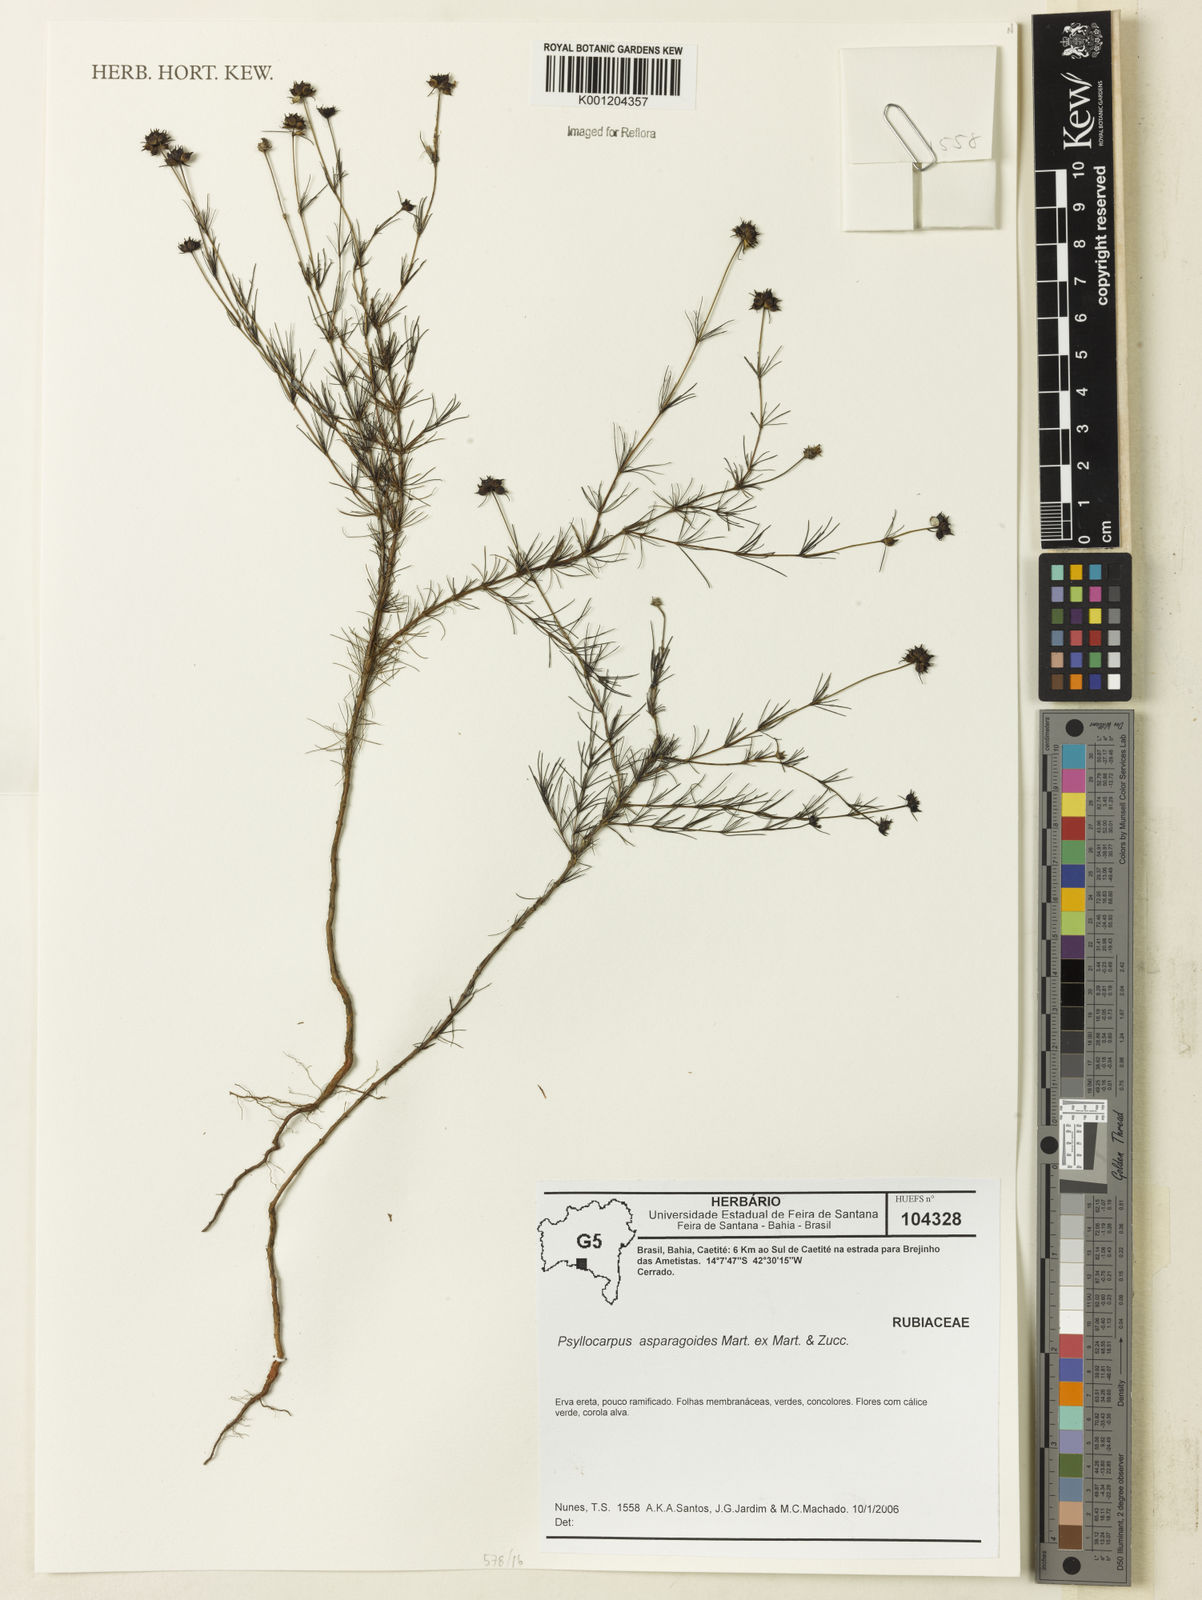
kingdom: Plantae
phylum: Tracheophyta
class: Magnoliopsida
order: Gentianales
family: Rubiaceae
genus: Psyllocarpus
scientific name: Psyllocarpus asparagoides
